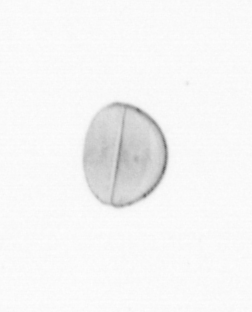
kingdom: Chromista
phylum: Ochrophyta
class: Bacillariophyceae
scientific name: Bacillariophyceae
